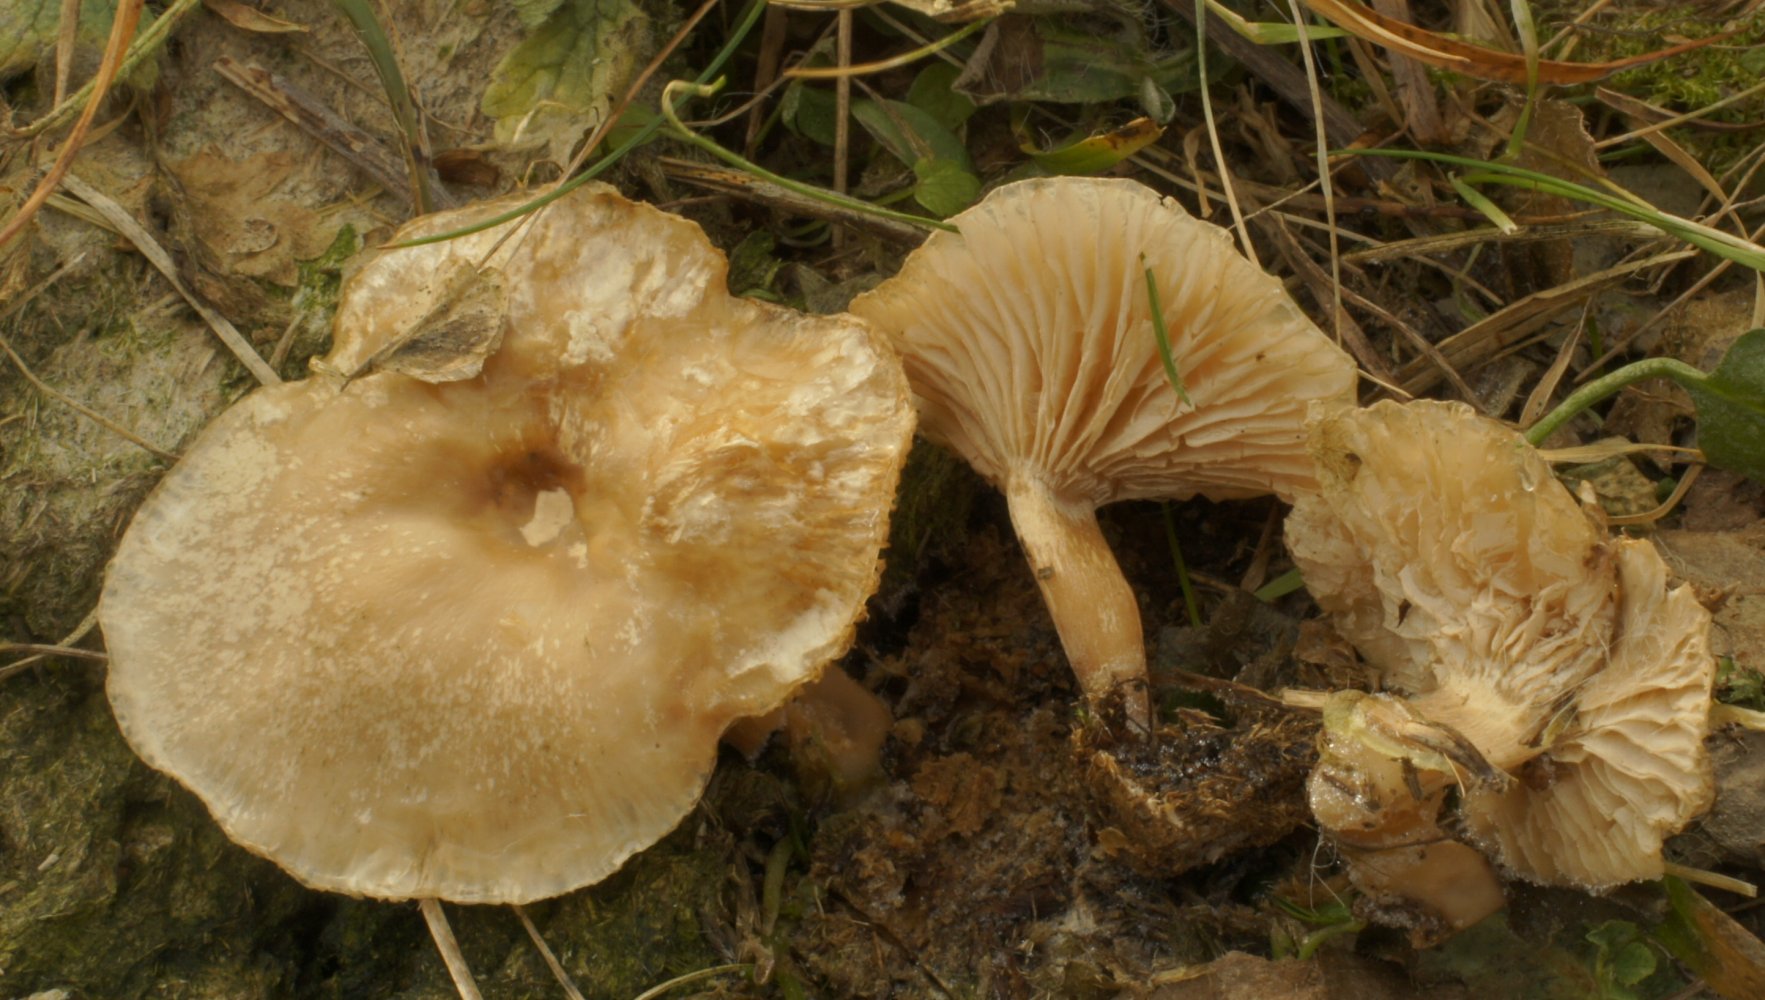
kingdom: Fungi
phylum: Basidiomycota
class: Agaricomycetes
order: Agaricales
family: Tricholomataceae
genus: Clitocybe
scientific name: Clitocybe amarescens
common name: gødnings-tragthat
